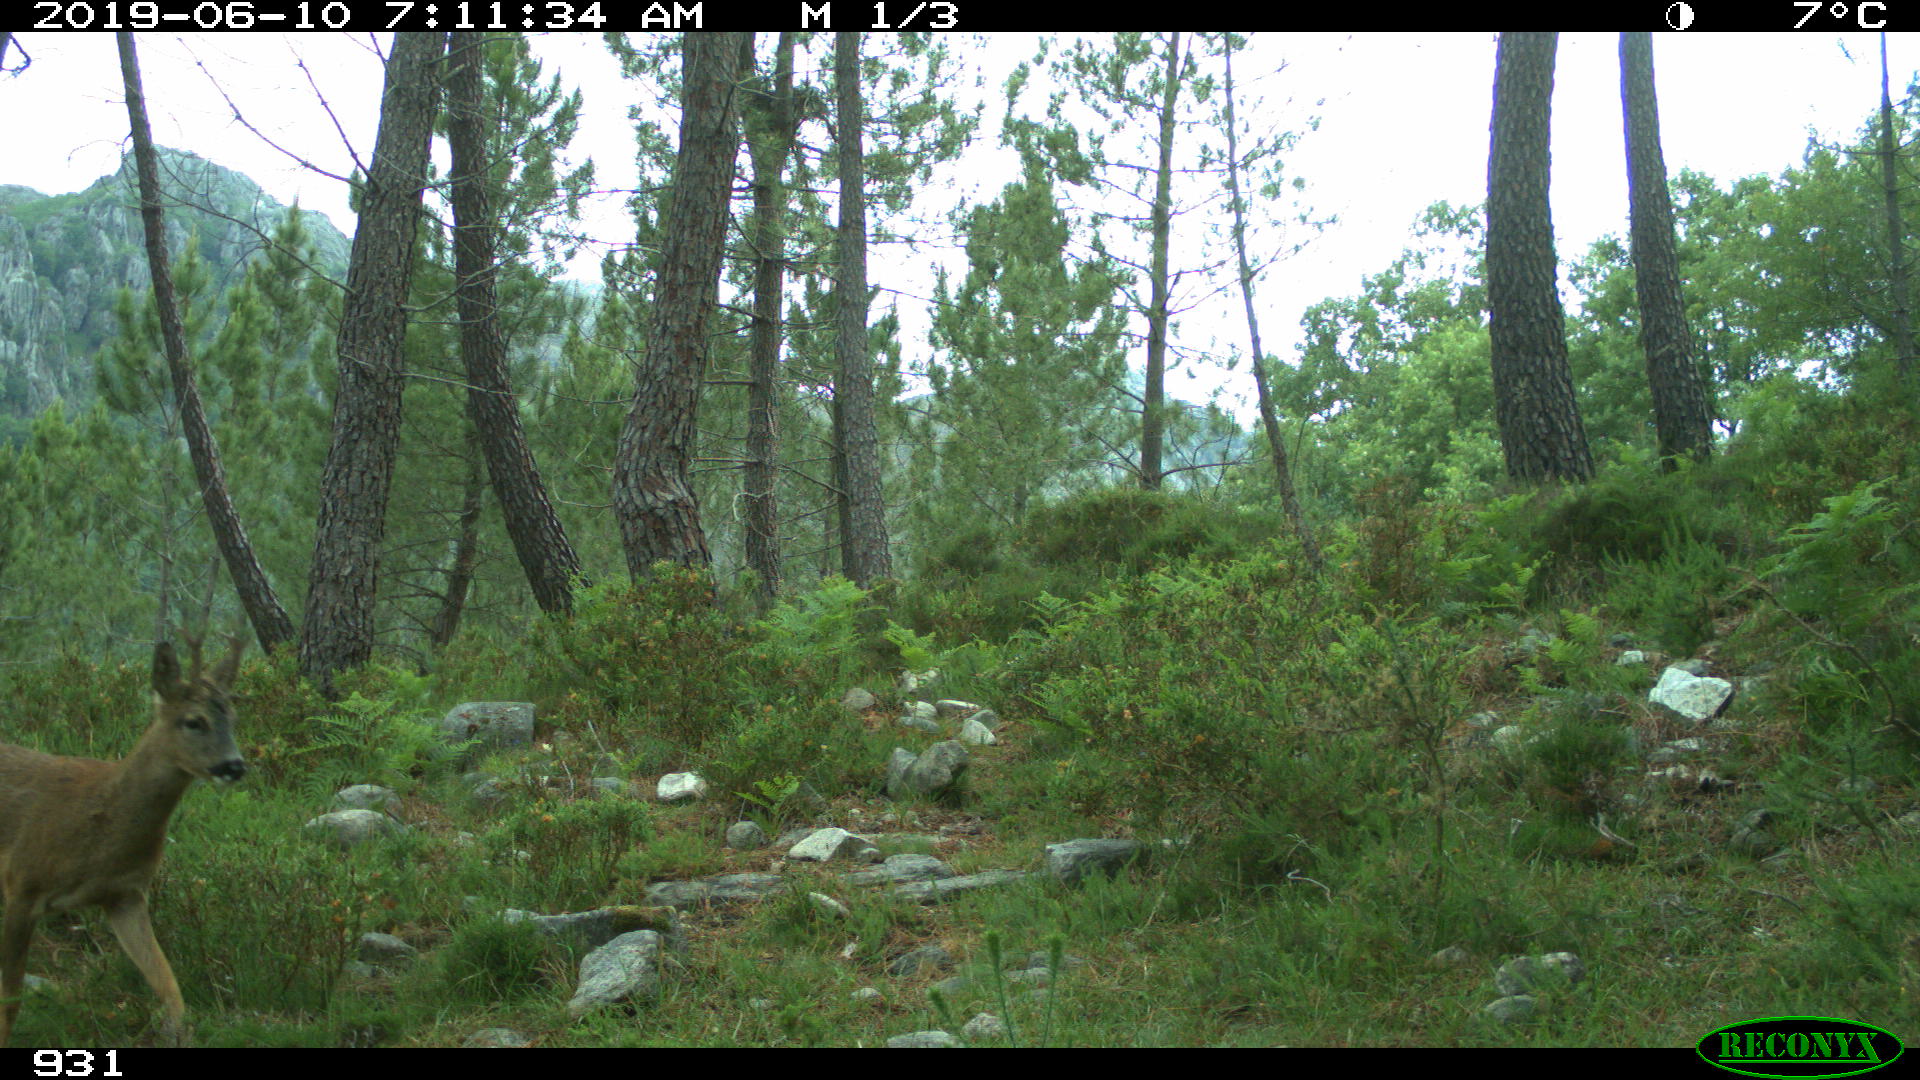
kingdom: Animalia
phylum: Chordata
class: Mammalia
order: Artiodactyla
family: Cervidae
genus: Capreolus
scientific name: Capreolus capreolus
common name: Western roe deer
